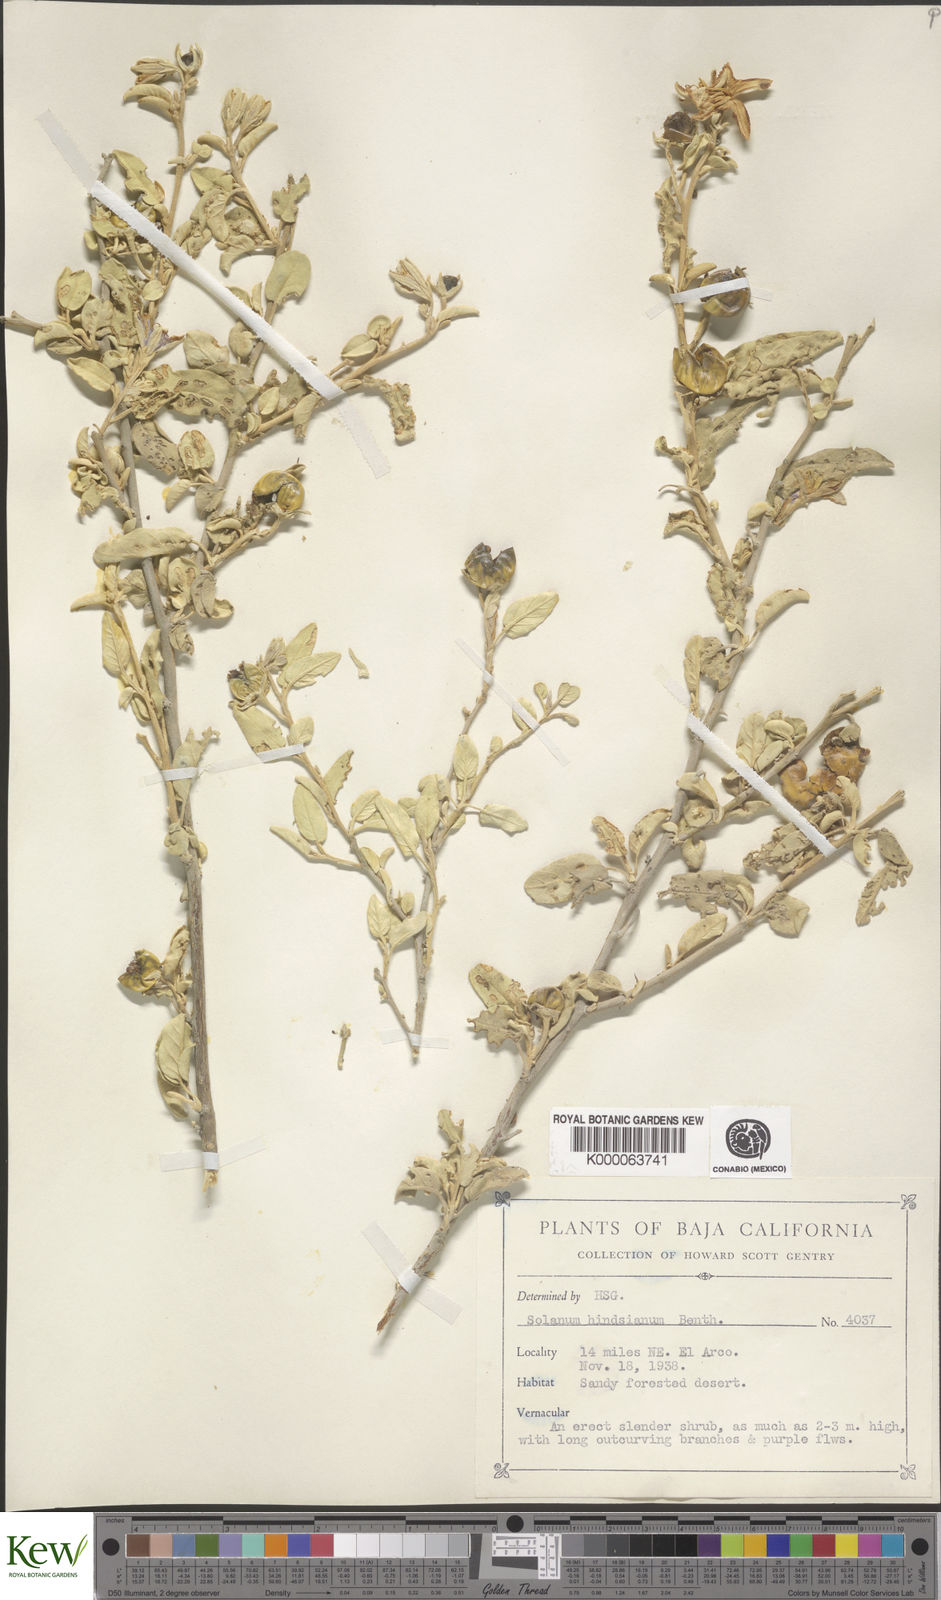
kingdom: Plantae
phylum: Tracheophyta
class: Magnoliopsida
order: Solanales
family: Solanaceae
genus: Solanum
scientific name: Solanum hindsianum
